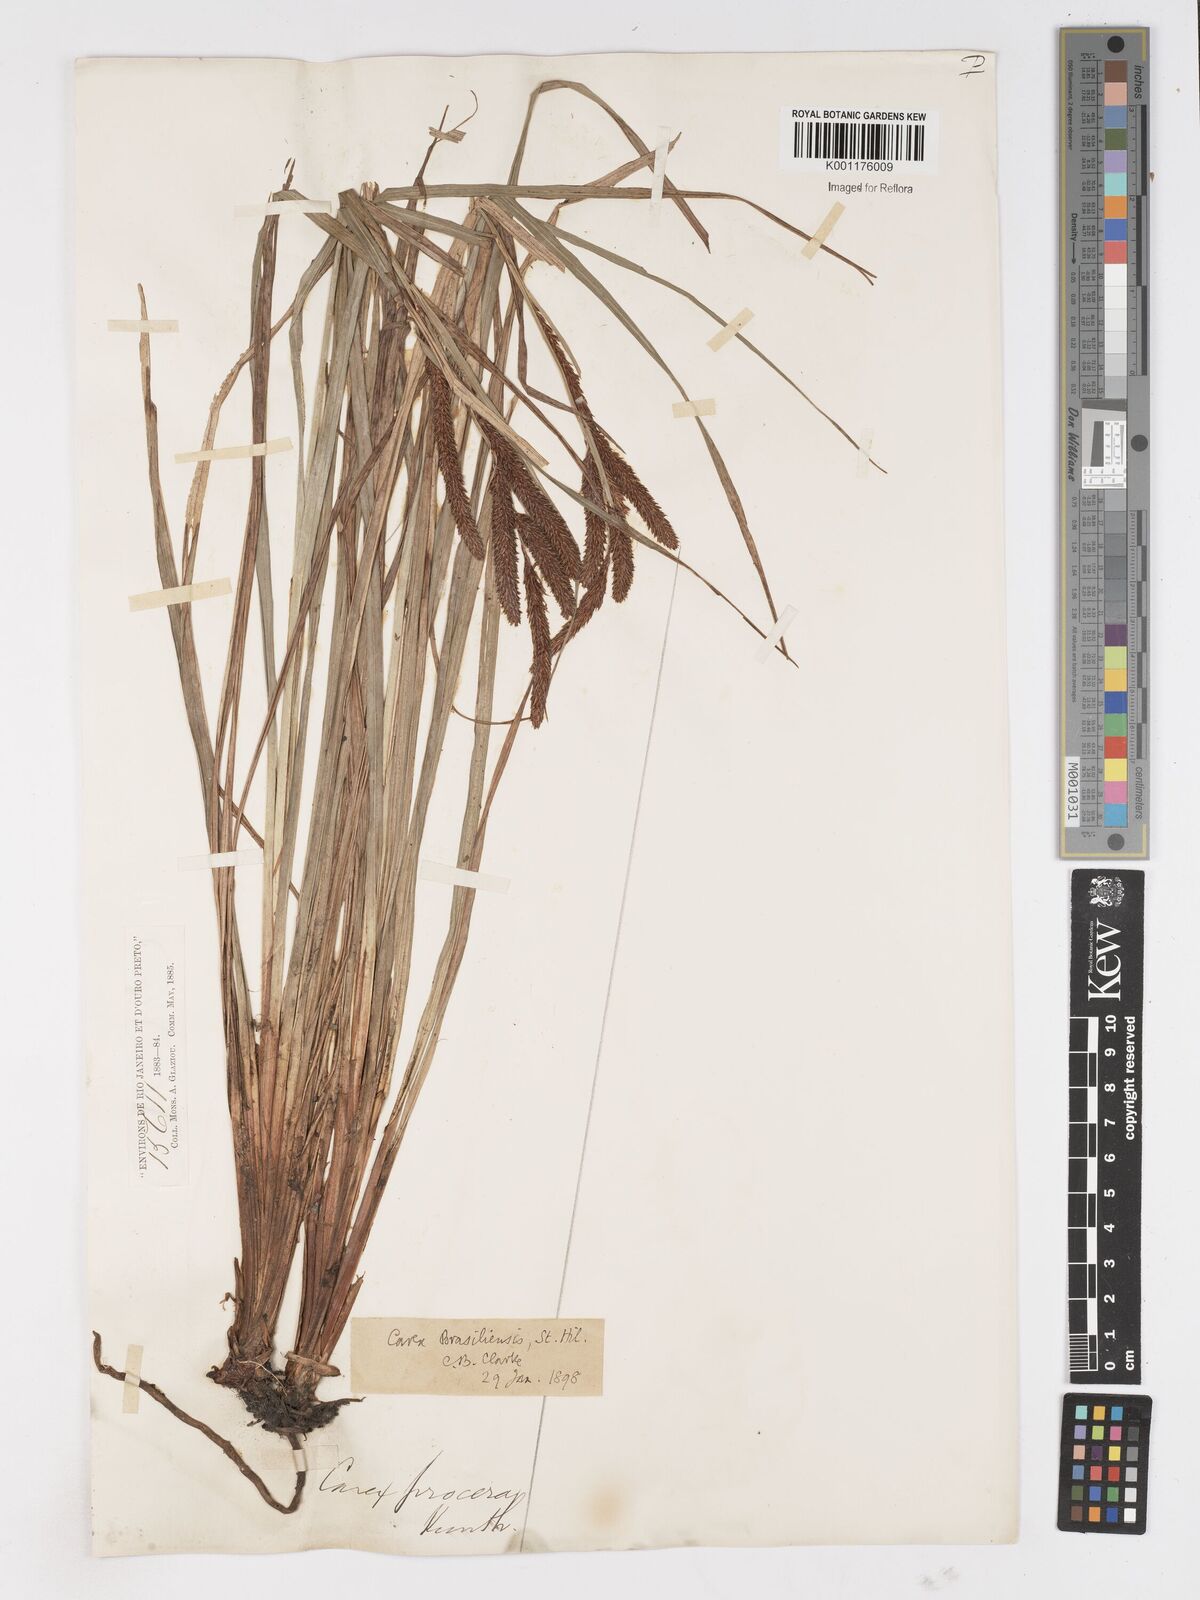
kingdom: Plantae
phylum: Tracheophyta
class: Liliopsida
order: Poales
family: Cyperaceae
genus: Carex
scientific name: Carex brasiliensis
